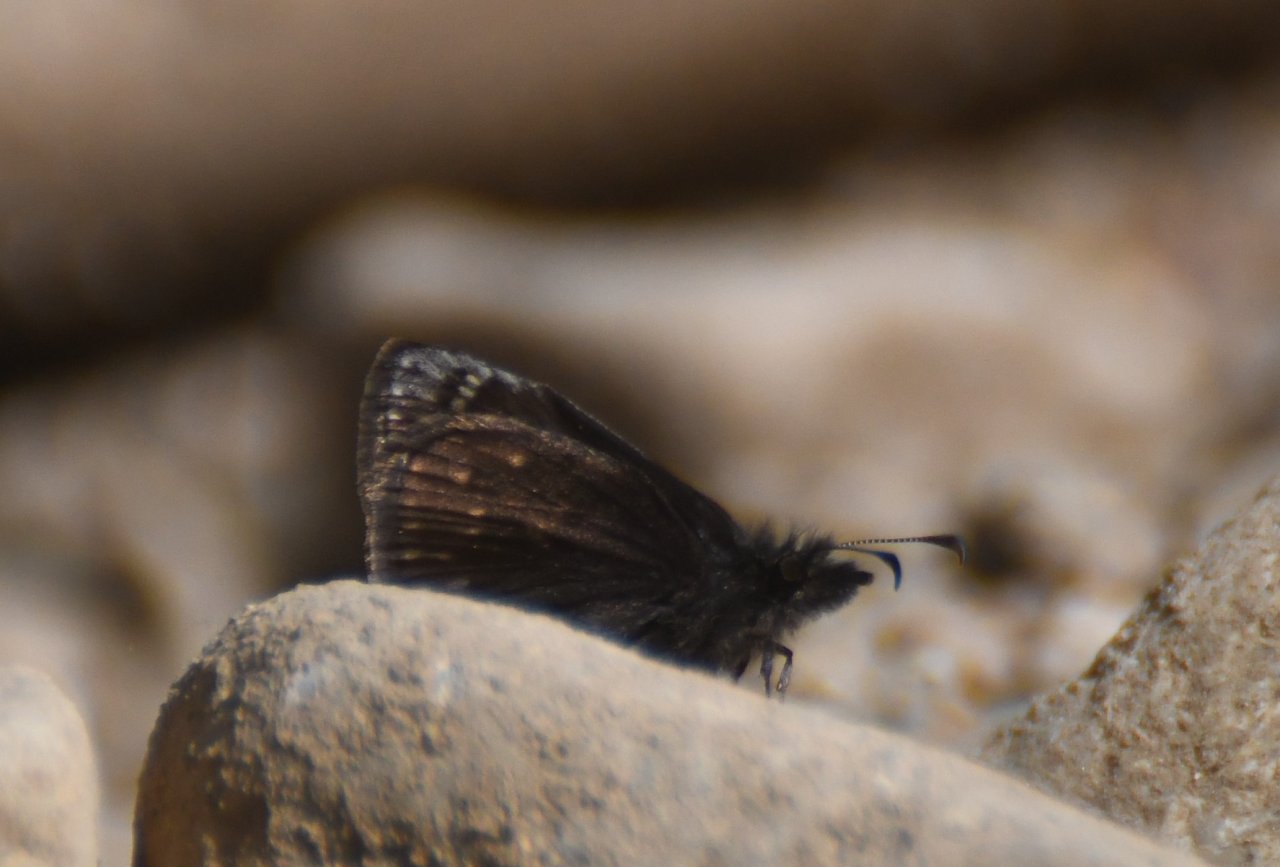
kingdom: Animalia
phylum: Arthropoda
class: Insecta
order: Lepidoptera
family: Hesperiidae
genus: Erynnis
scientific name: Erynnis icelus
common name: Dreamy Duskywing
